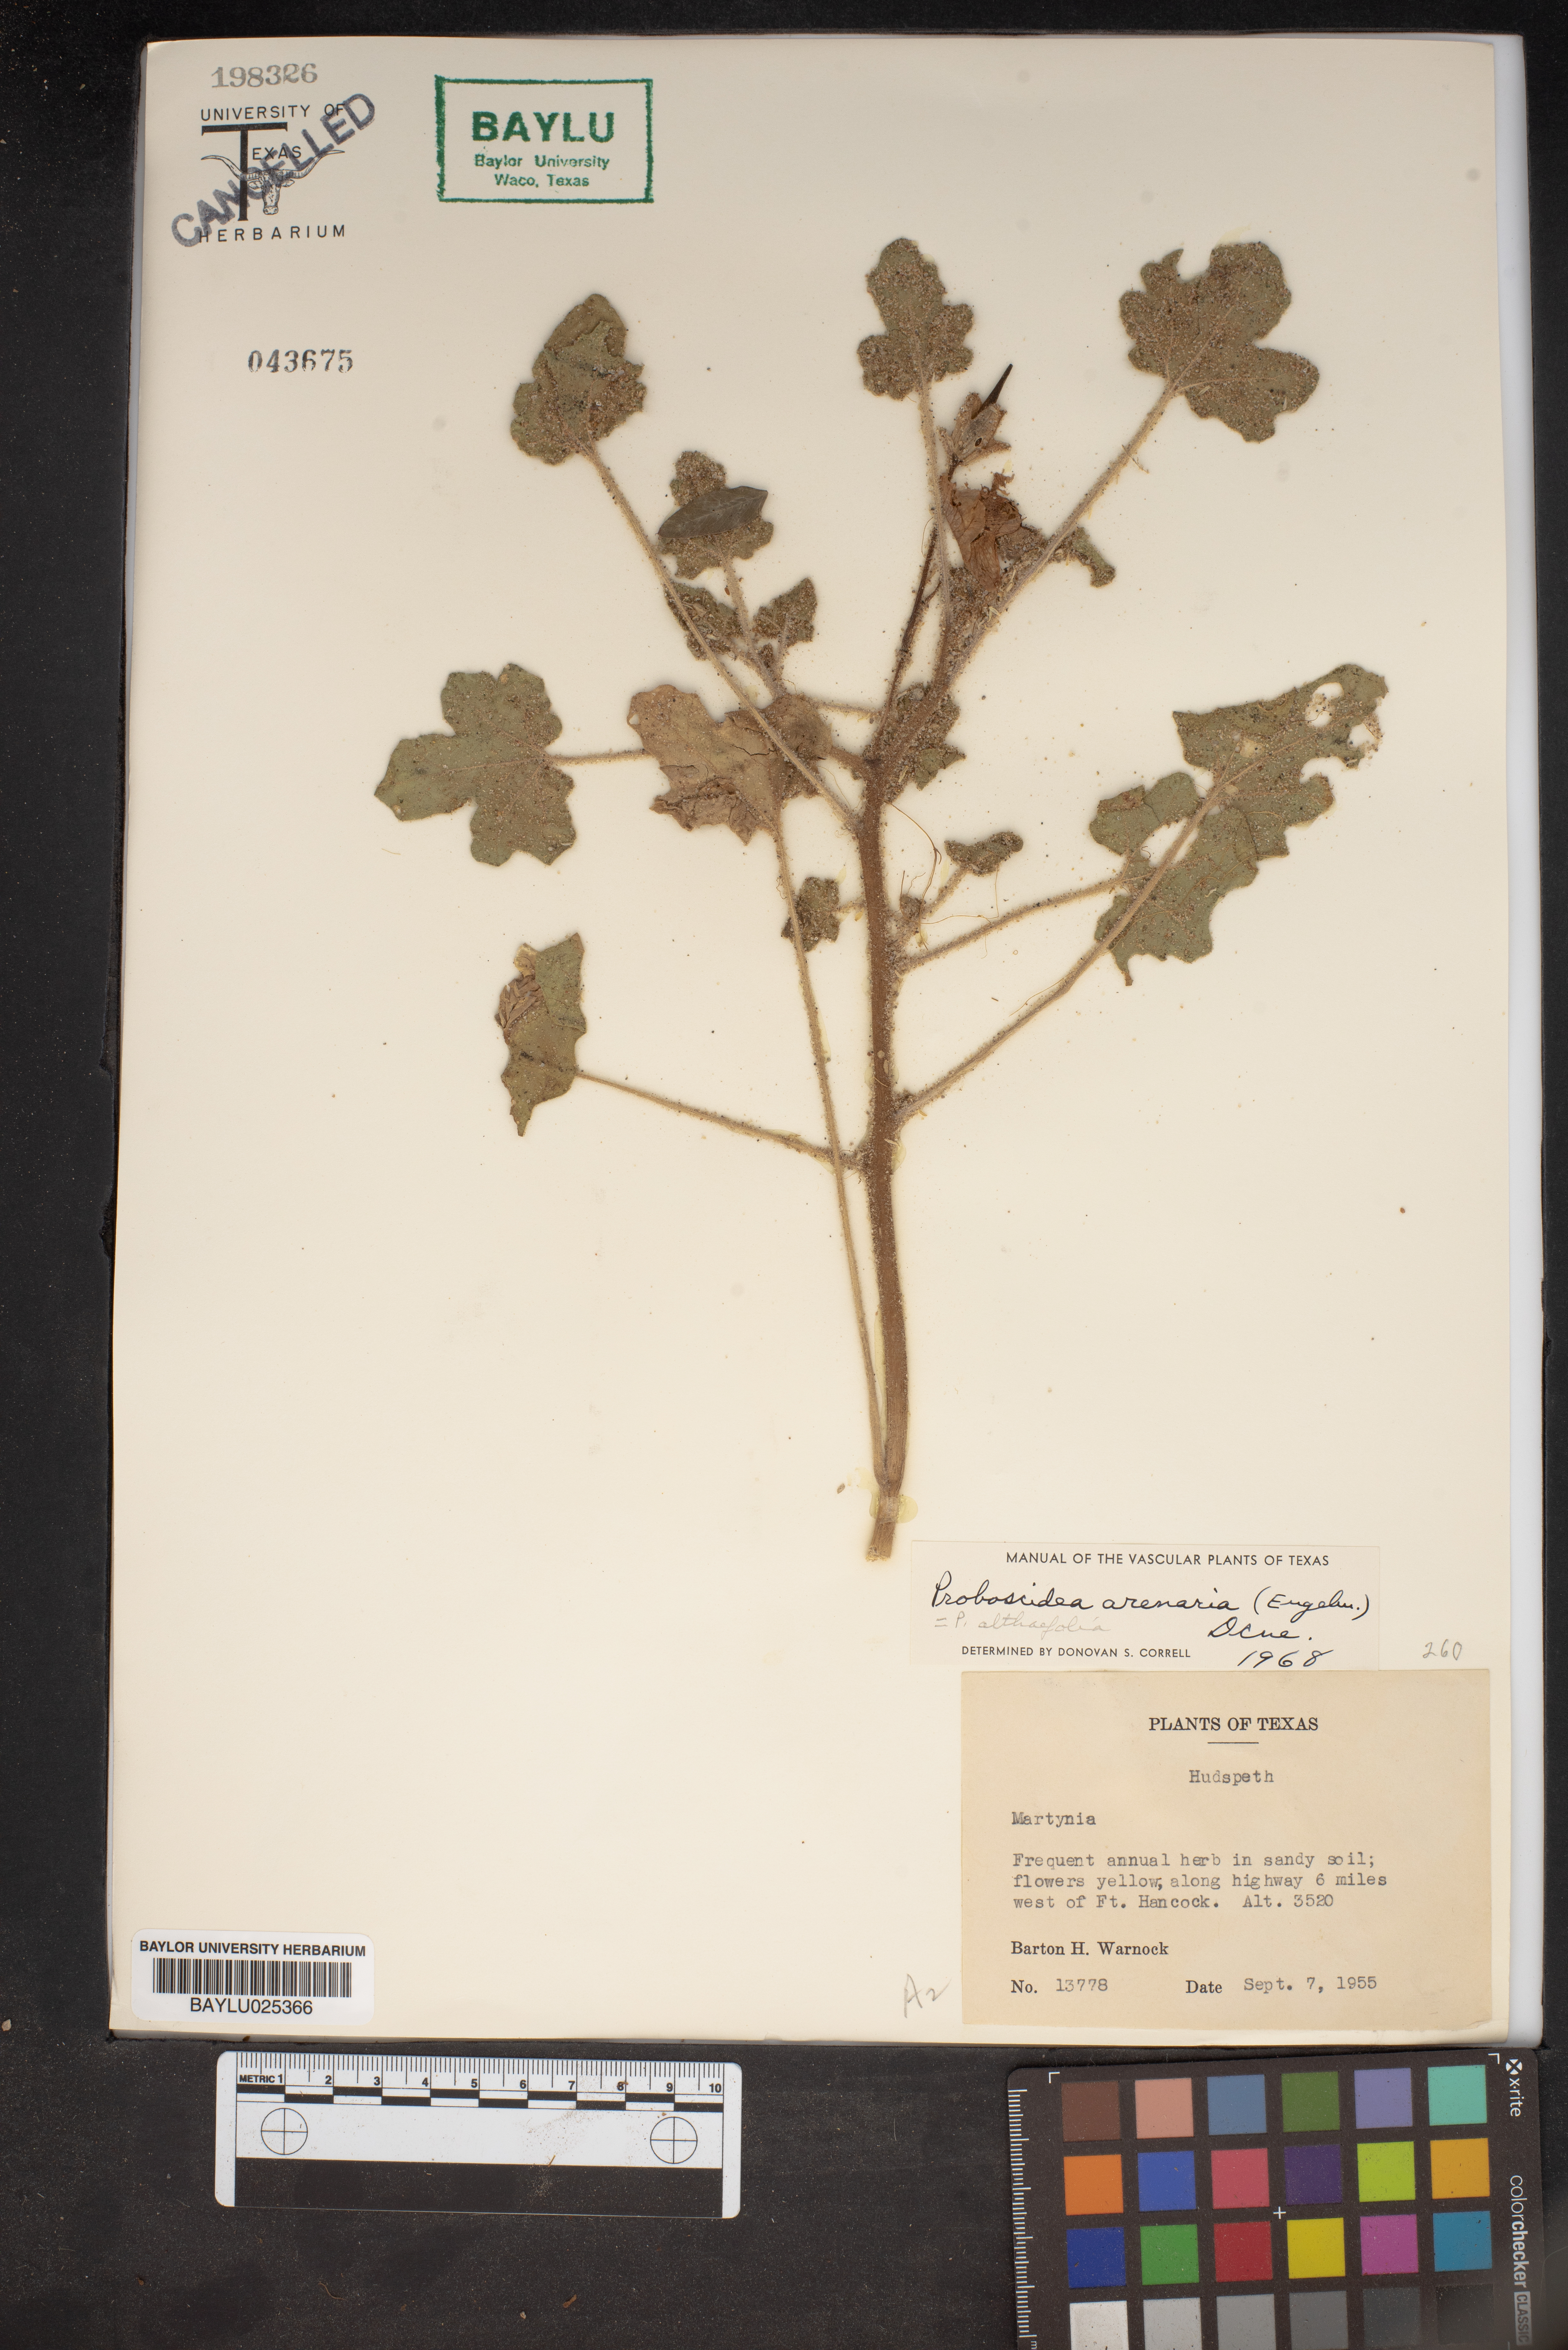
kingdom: Plantae
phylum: Tracheophyta
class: Magnoliopsida
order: Lamiales
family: Martyniaceae
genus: Martynia
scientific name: Martynia
